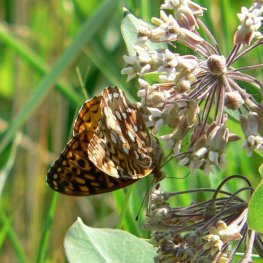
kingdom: Animalia
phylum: Arthropoda
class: Insecta
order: Lepidoptera
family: Nymphalidae
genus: Speyeria
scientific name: Speyeria cybele
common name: Great Spangled Fritillary
